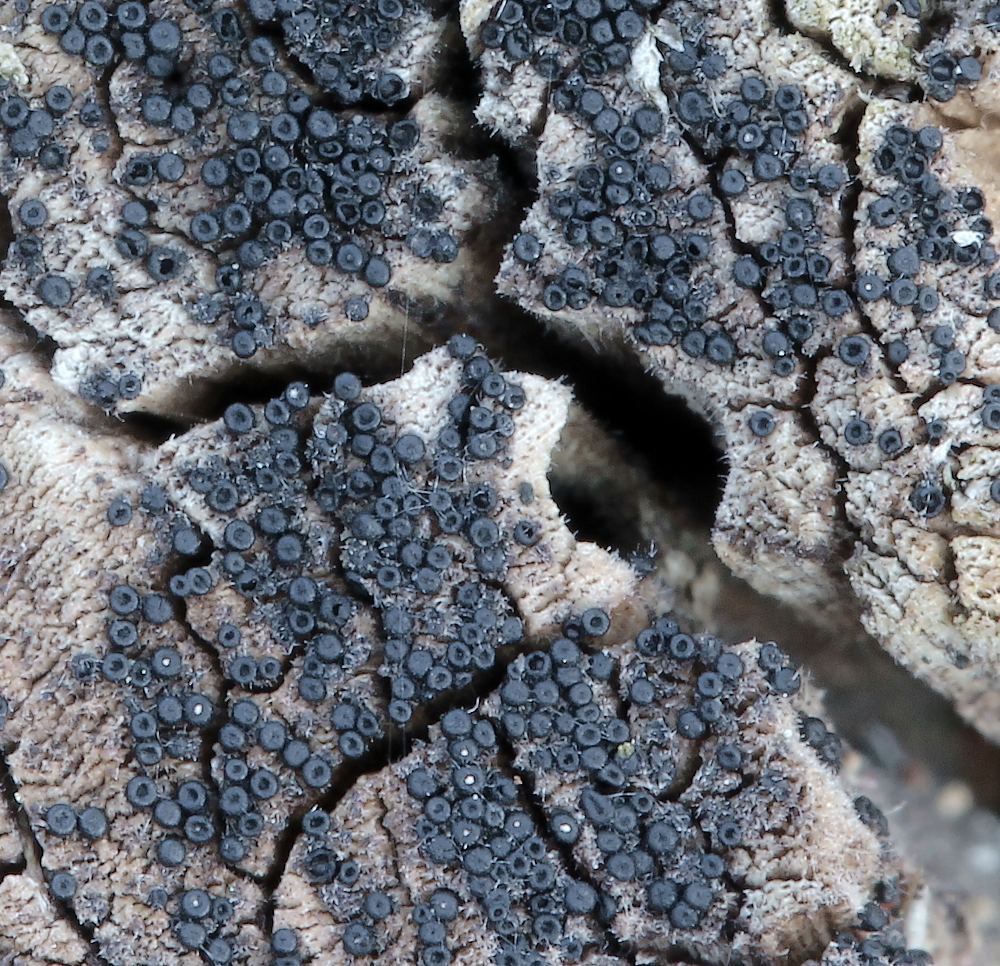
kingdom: Fungi
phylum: Ascomycota
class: Sordariomycetes
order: Hypocreales
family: Niessliaceae
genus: Melanopsamma
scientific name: Melanopsamma pomiformis
